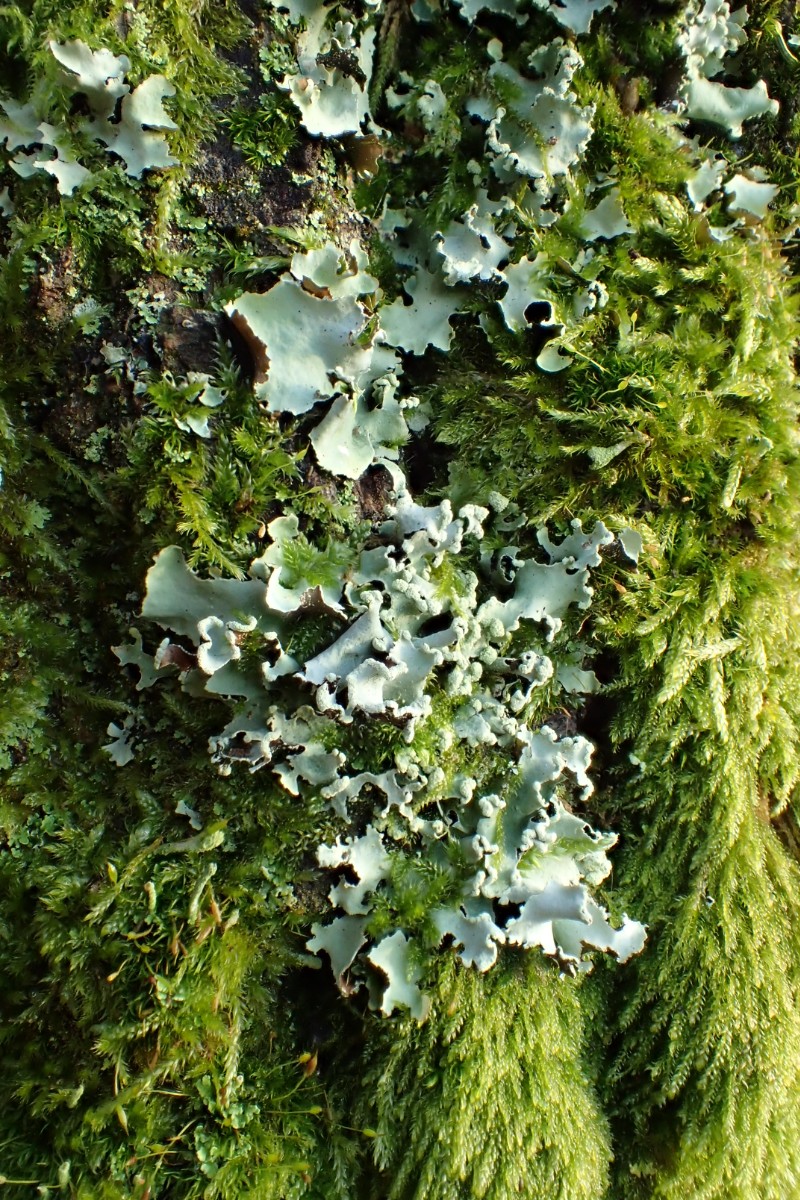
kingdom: Fungi
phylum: Ascomycota
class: Lecanoromycetes
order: Lecanorales
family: Parmeliaceae
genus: Parmotrema
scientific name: Parmotrema perlatum
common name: trådet skållav
